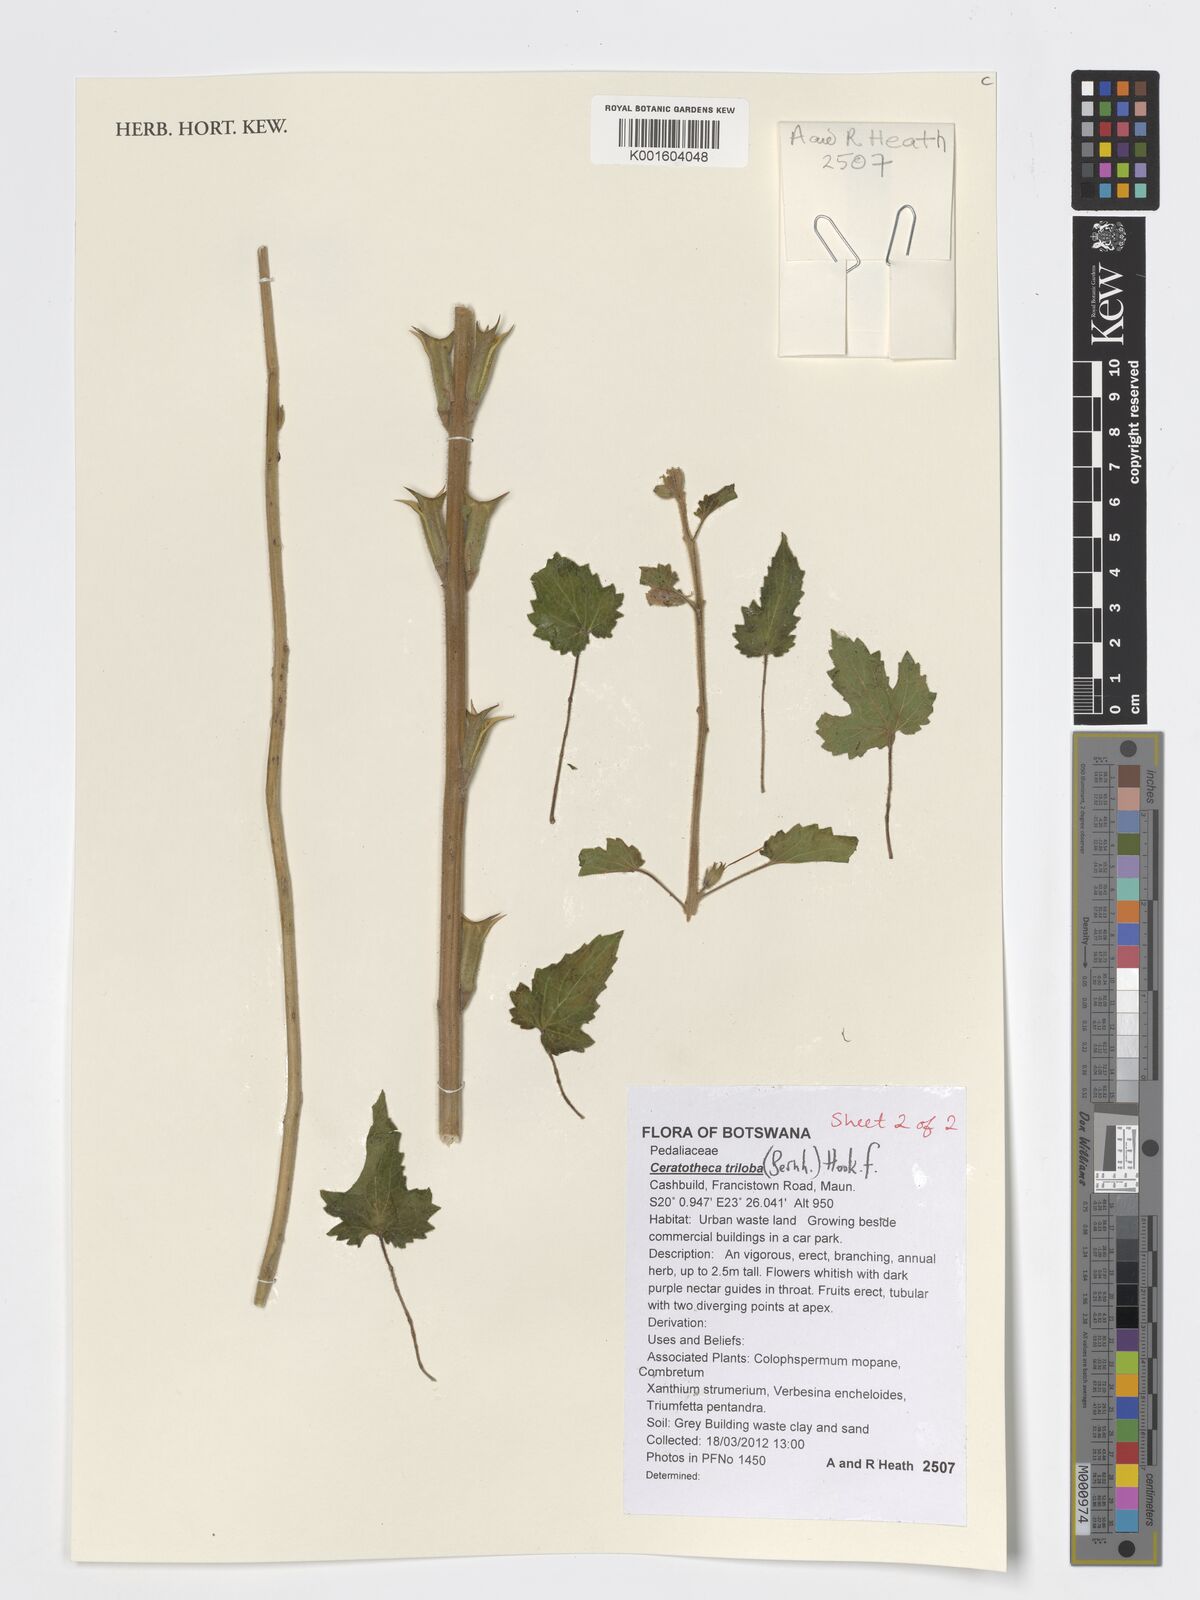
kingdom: Plantae
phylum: Tracheophyta
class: Magnoliopsida
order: Lamiales
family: Pedaliaceae
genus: Sesamum
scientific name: Sesamum trilobum
